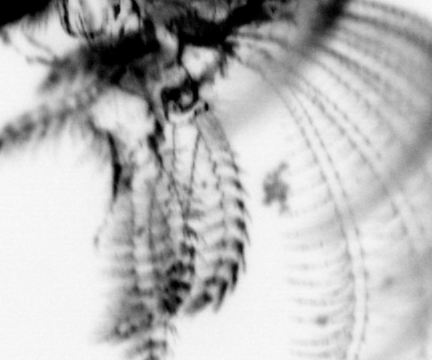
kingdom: Animalia
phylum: Arthropoda
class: Maxillopoda
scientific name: Maxillopoda
